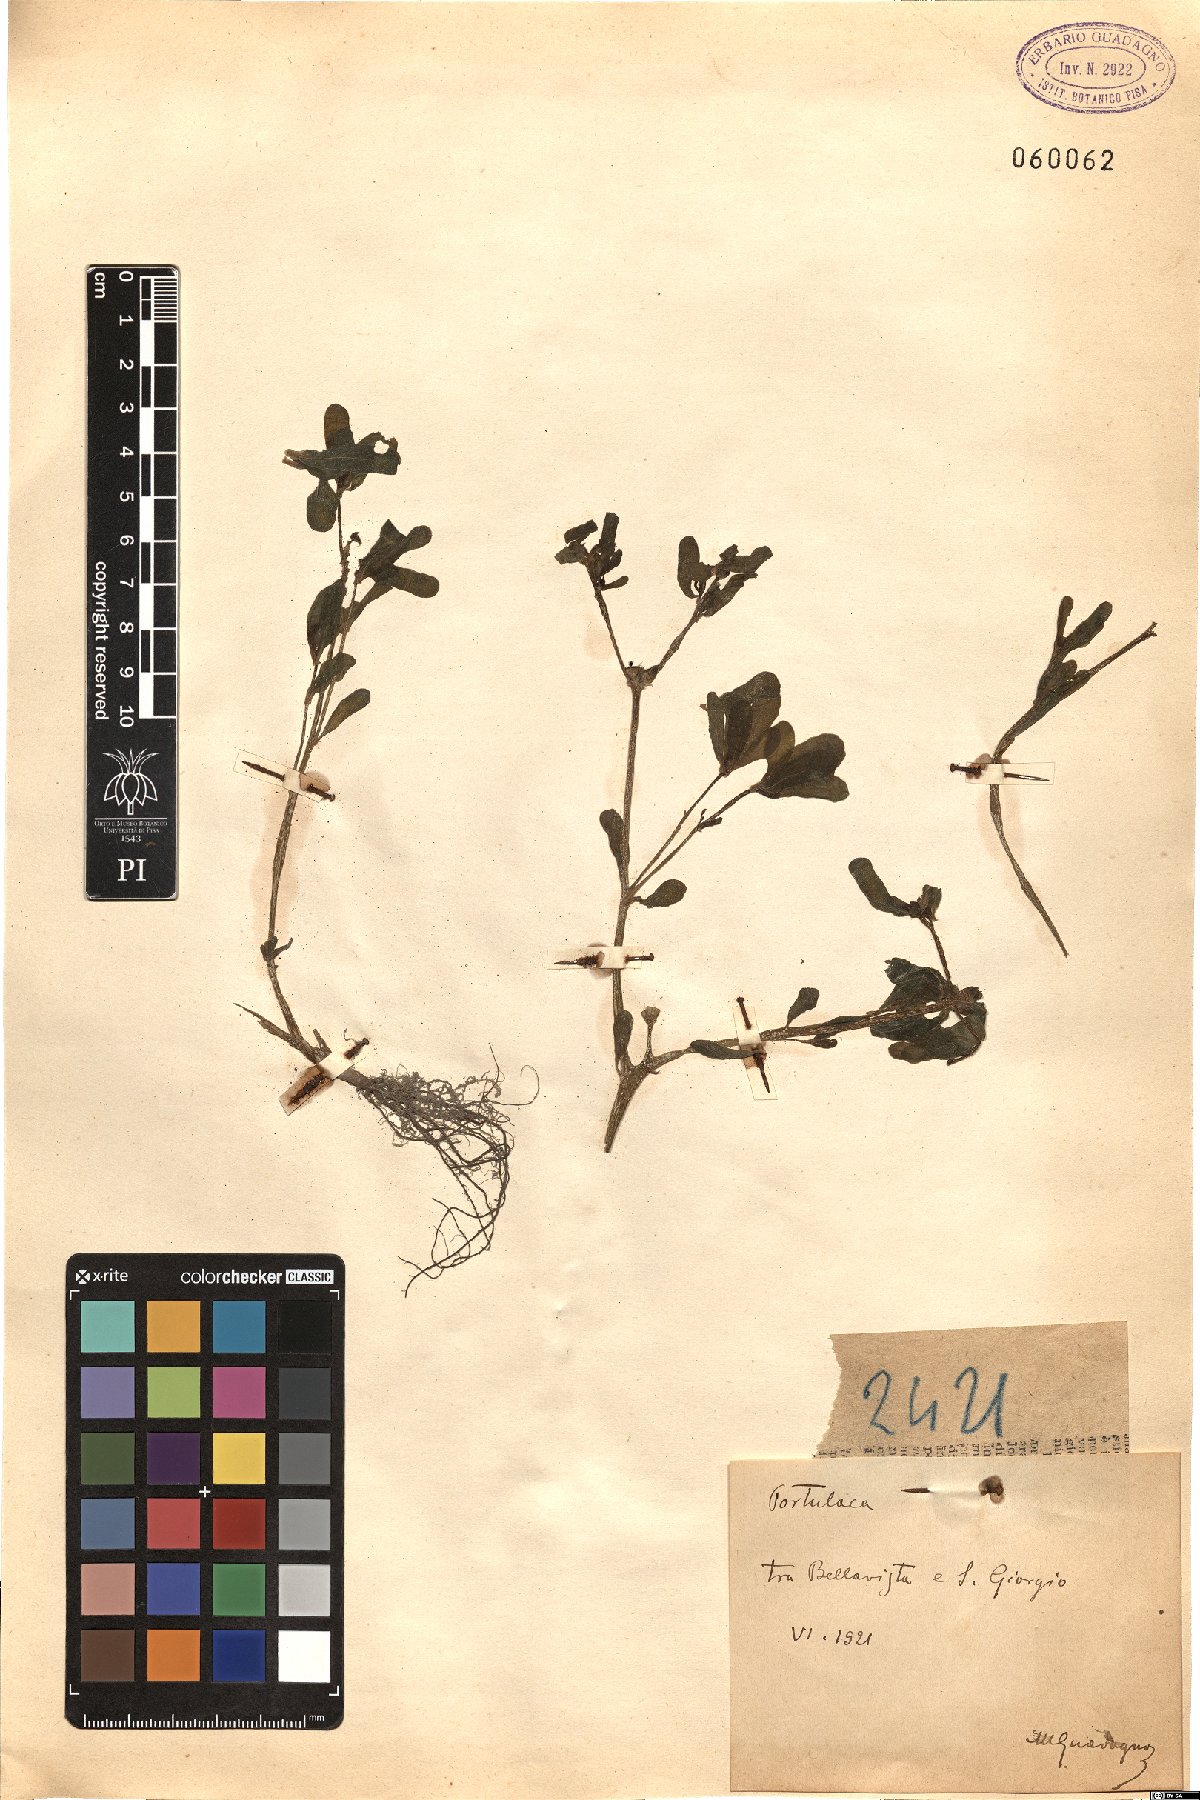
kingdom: Plantae
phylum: Tracheophyta
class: Magnoliopsida
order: Caryophyllales
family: Portulacaceae
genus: Portulaca
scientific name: Portulaca
